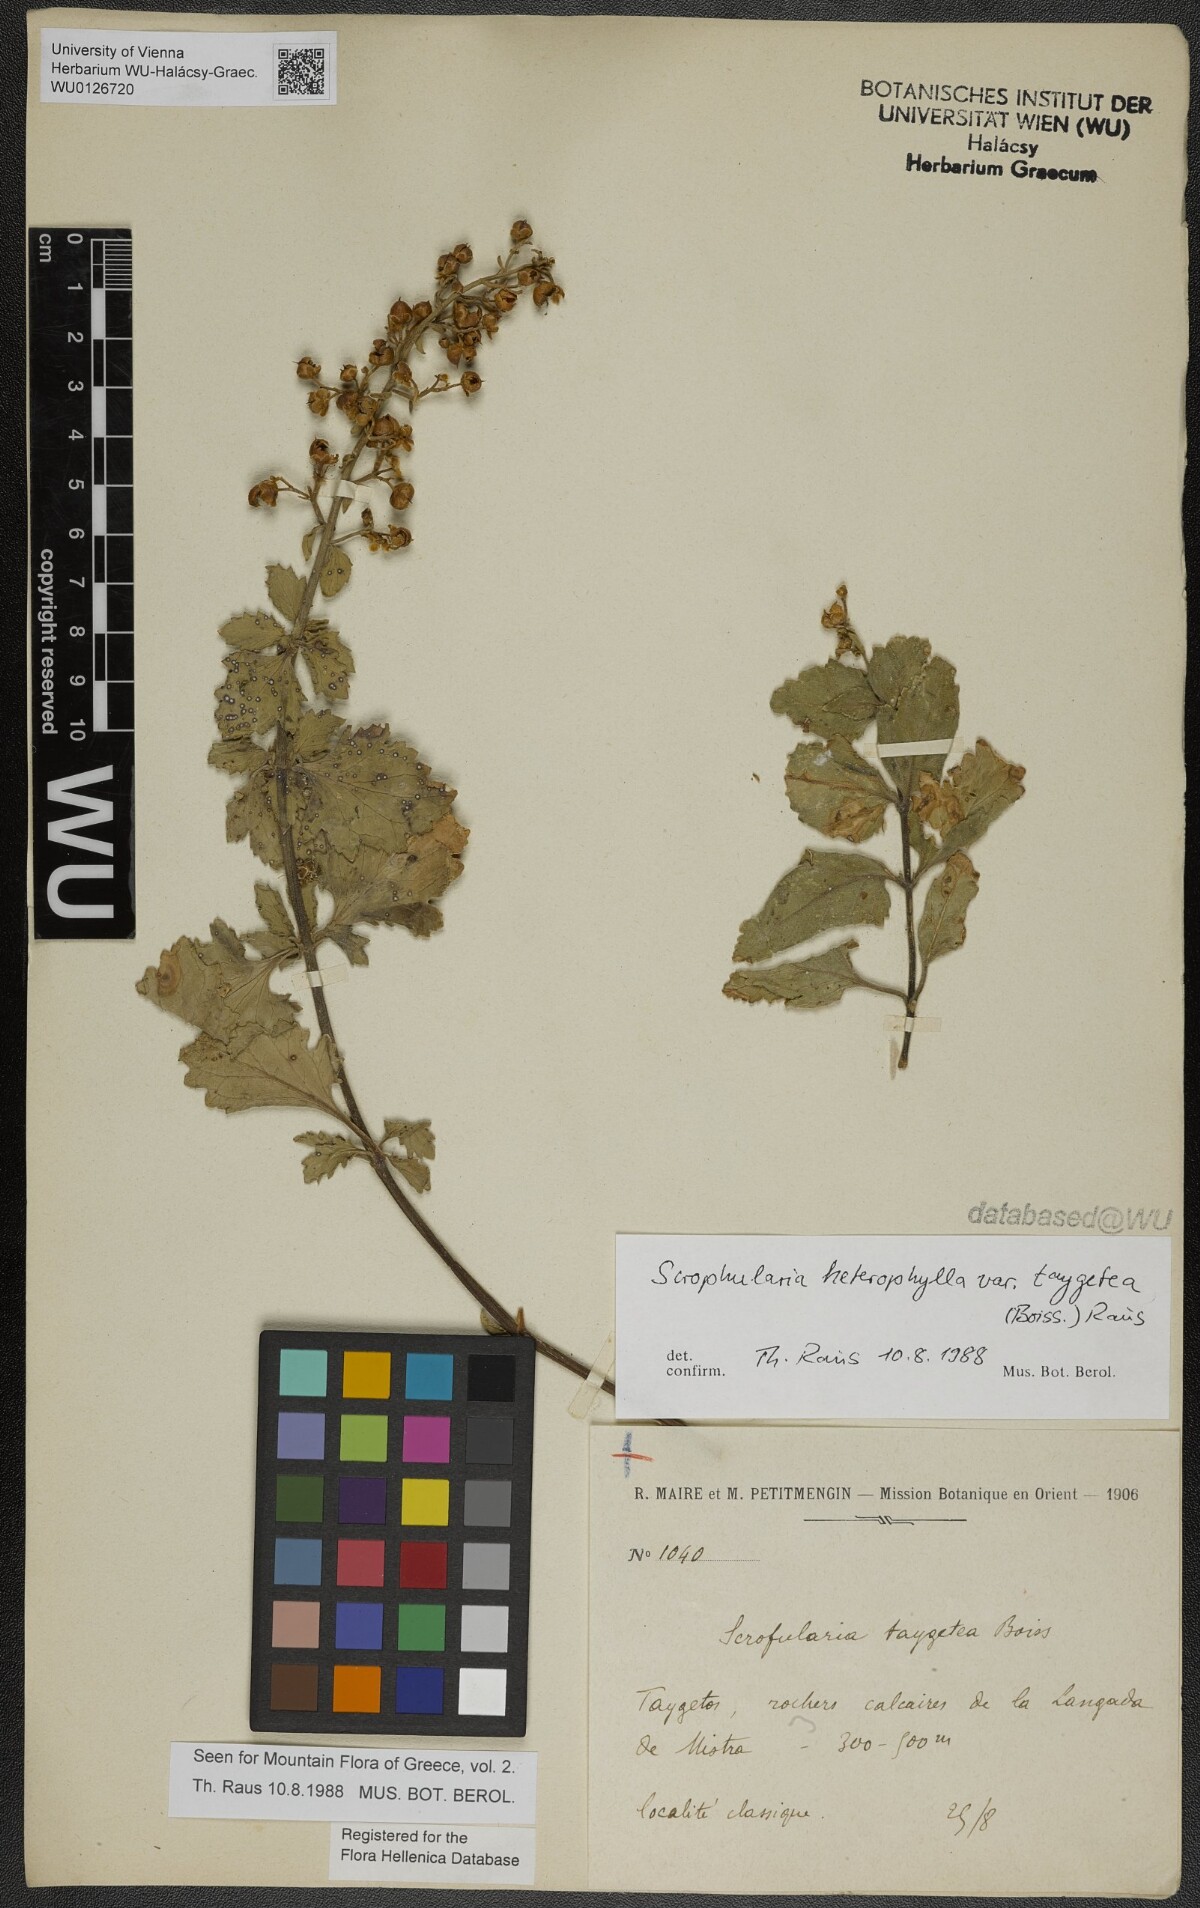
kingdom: Plantae
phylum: Tracheophyta
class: Magnoliopsida
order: Lamiales
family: Scrophulariaceae
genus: Scrophularia
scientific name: Scrophularia heterophylla
